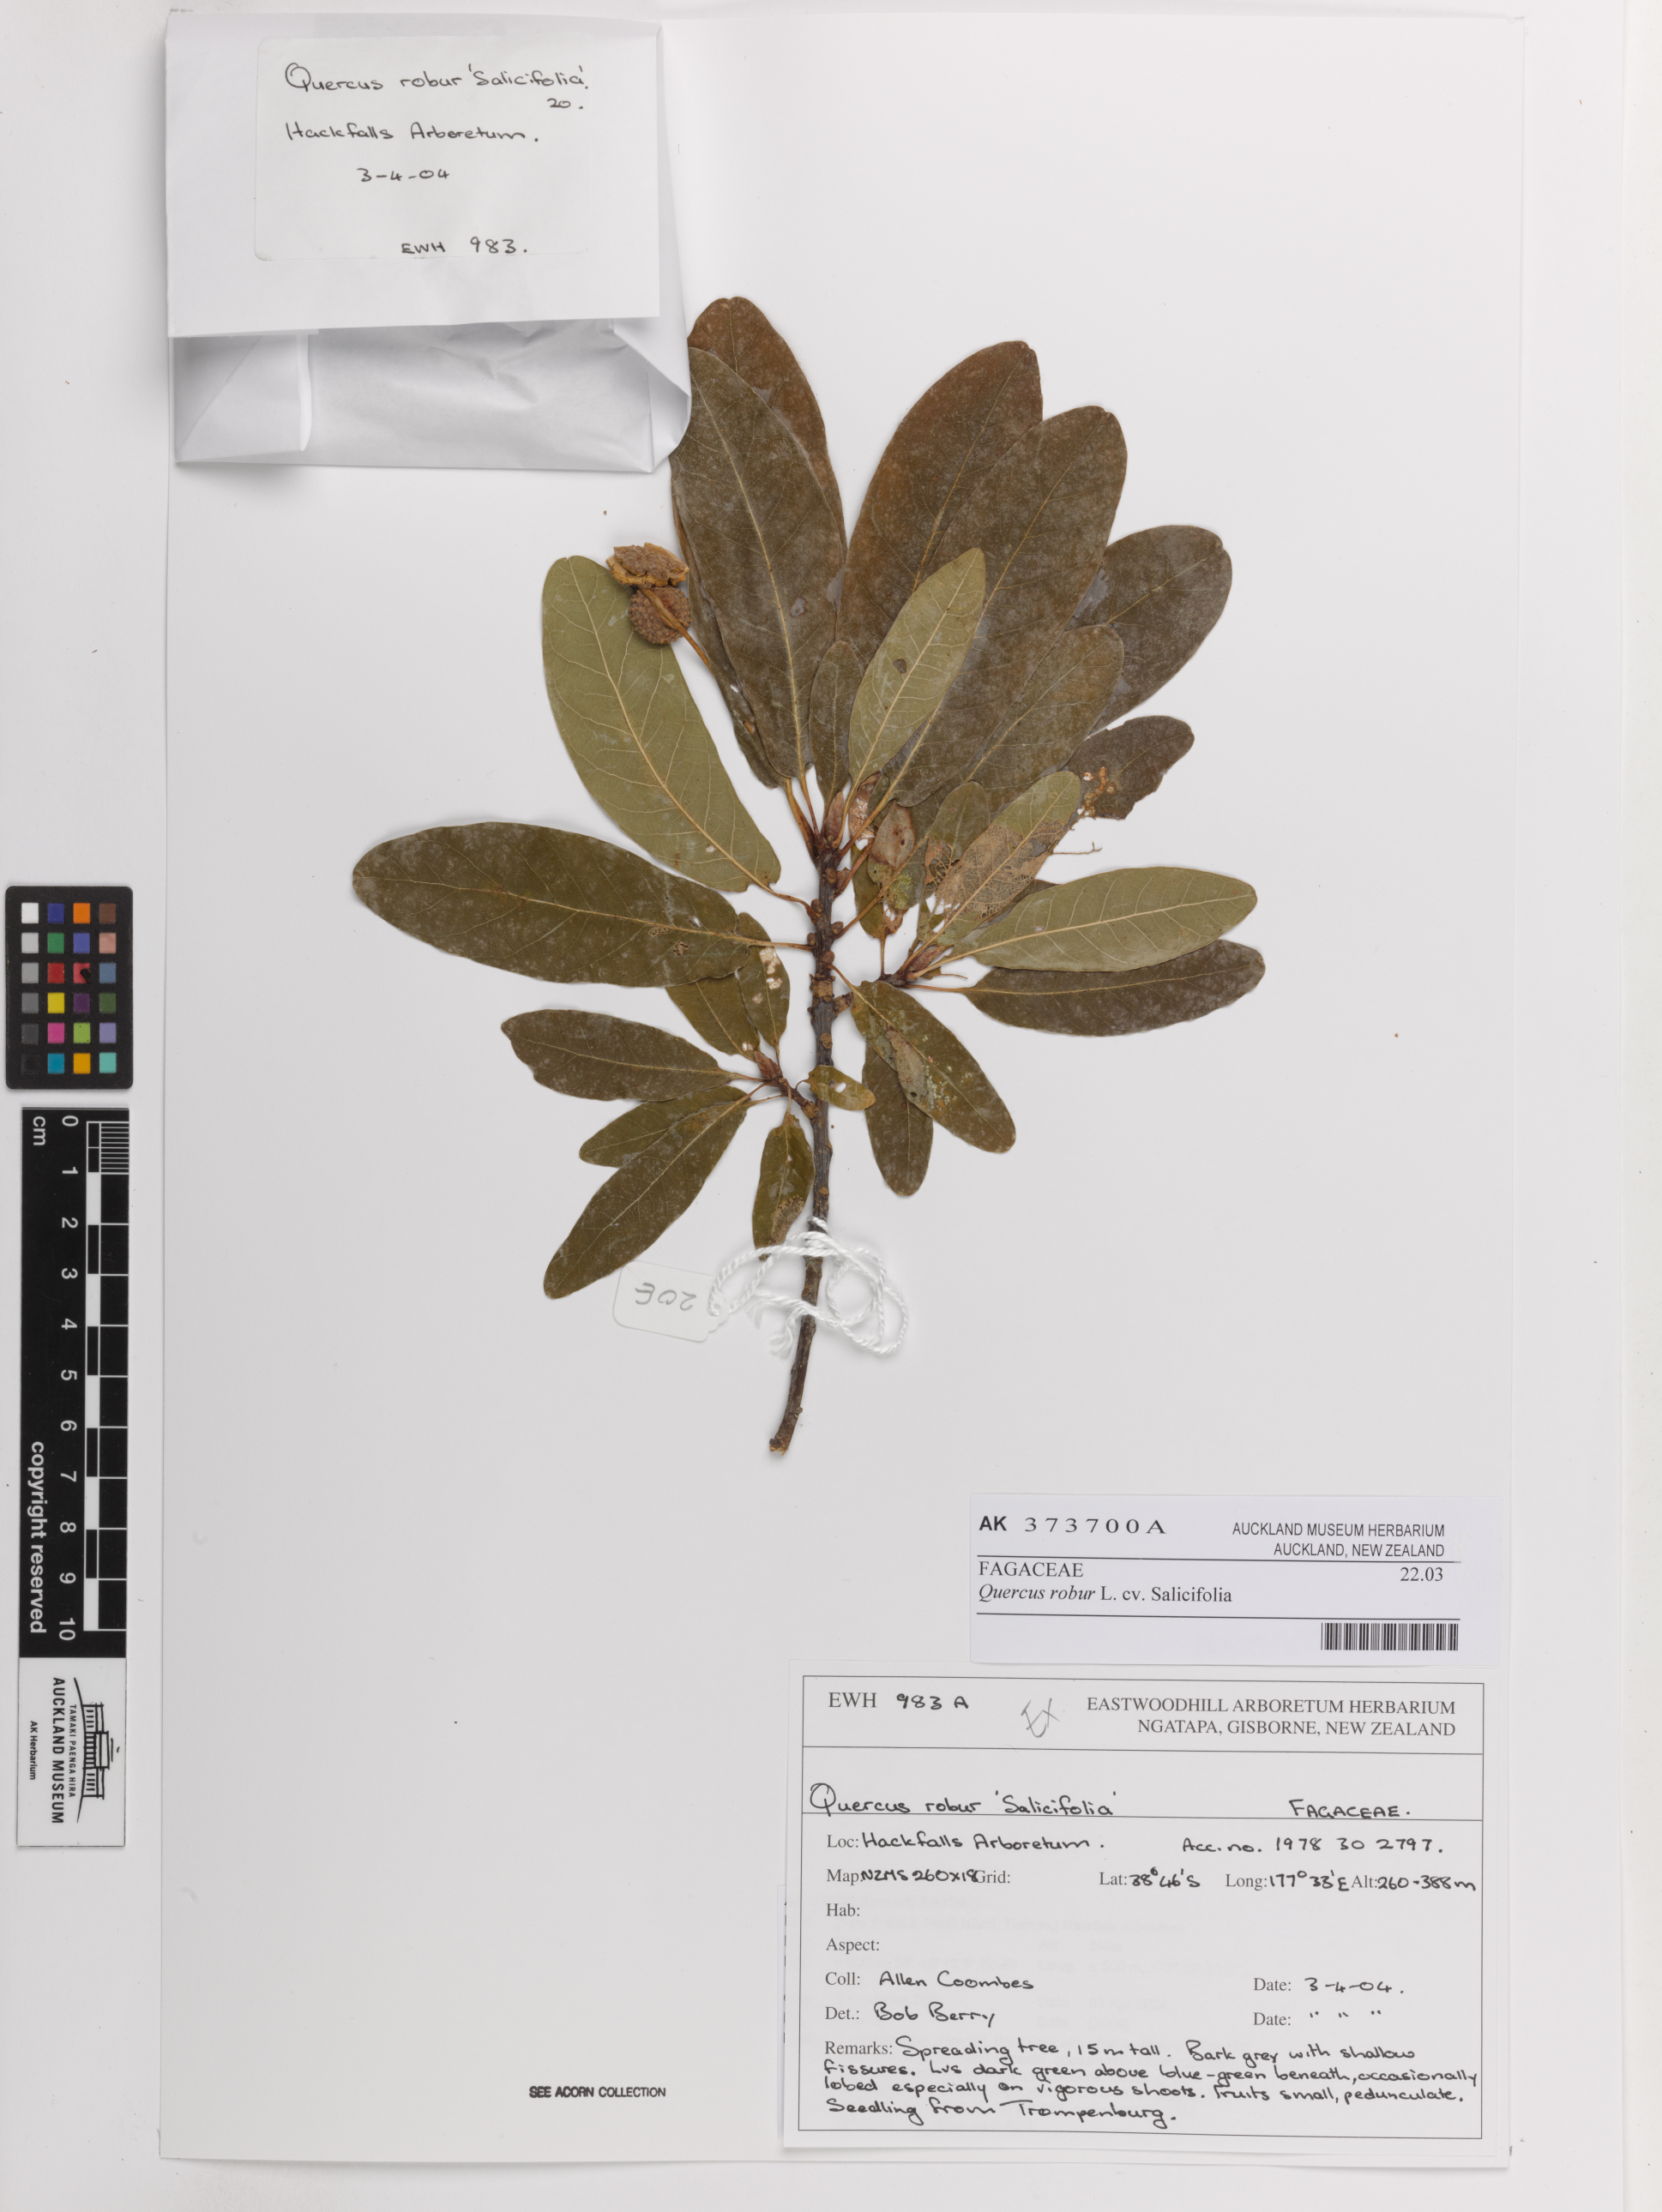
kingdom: Plantae
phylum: Tracheophyta
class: Magnoliopsida
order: Fagales
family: Fagaceae
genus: Quercus
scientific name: Quercus robur
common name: Pedunculate oak
